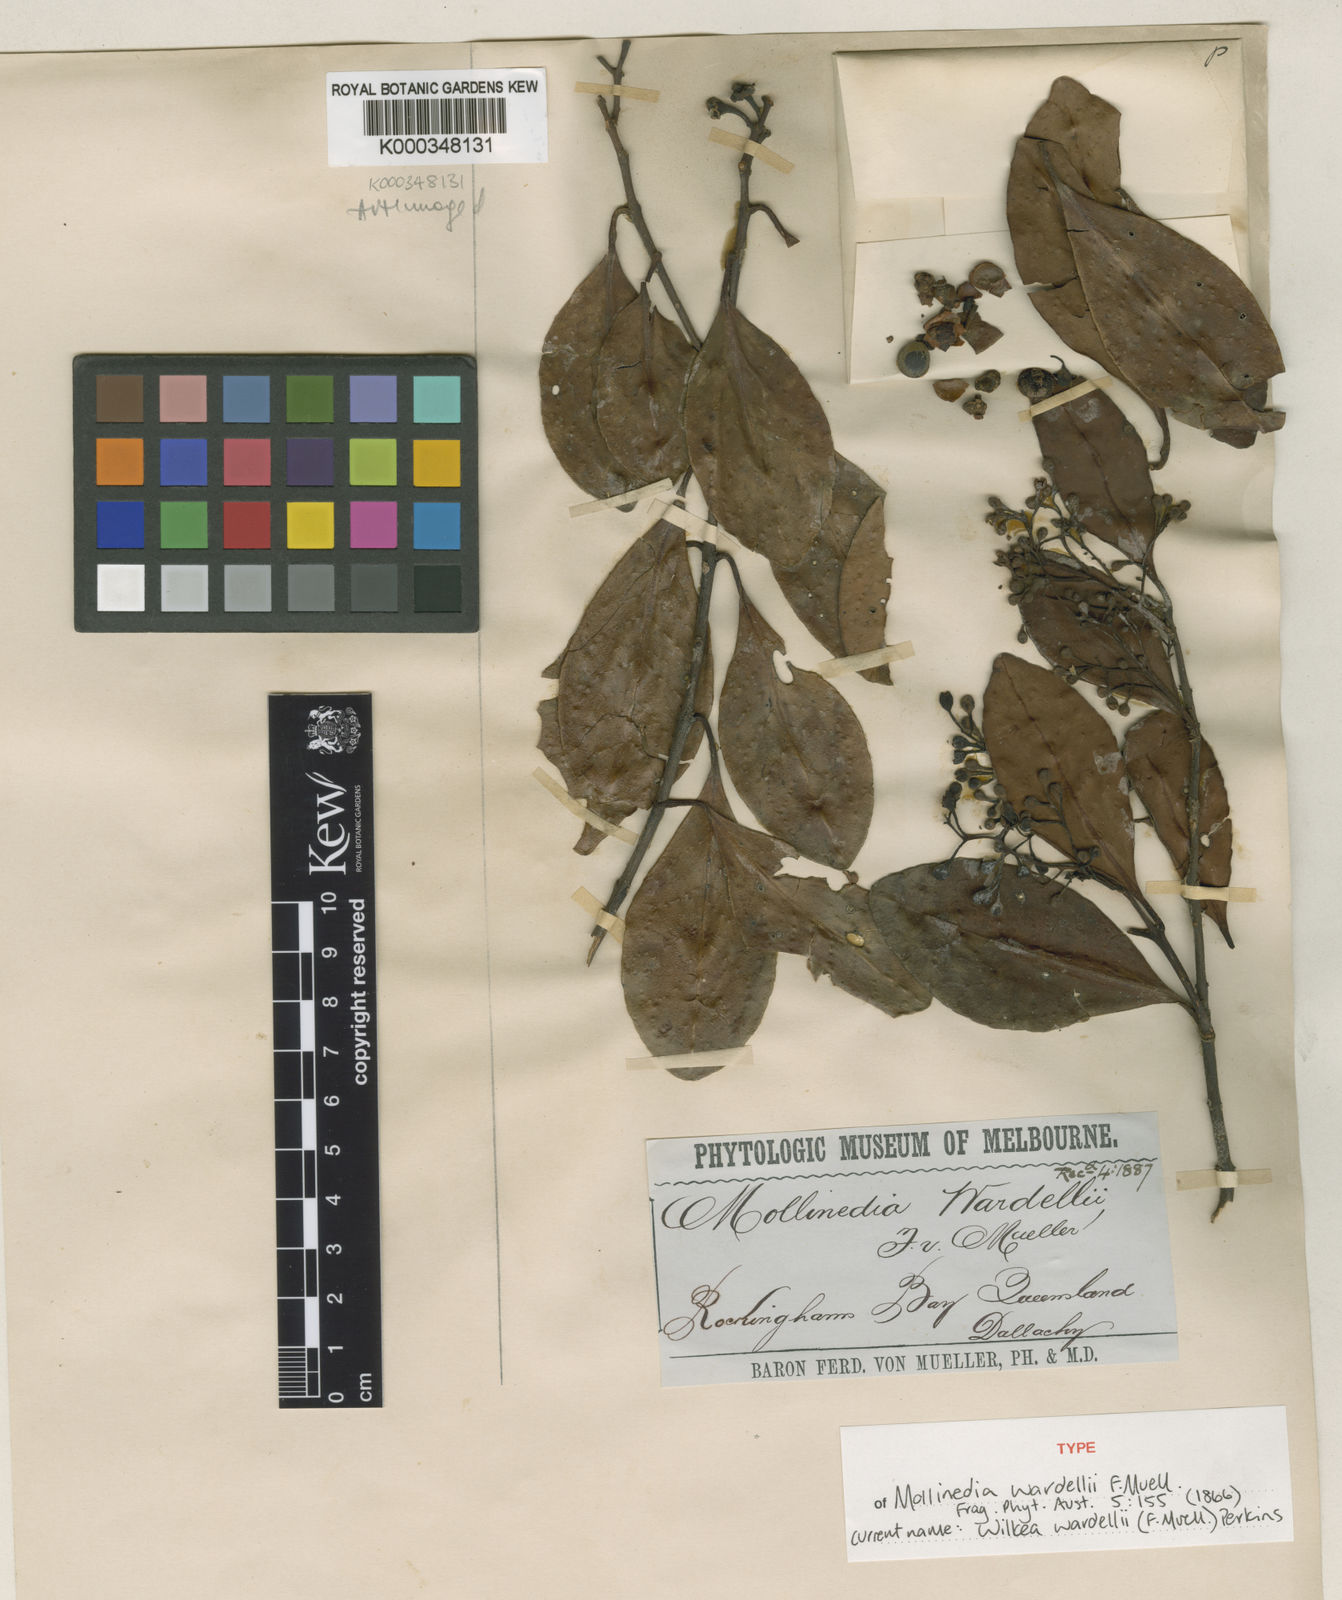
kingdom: Plantae
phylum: Tracheophyta
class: Magnoliopsida
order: Laurales
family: Monimiaceae
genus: Pendressia
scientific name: Pendressia wardellii
